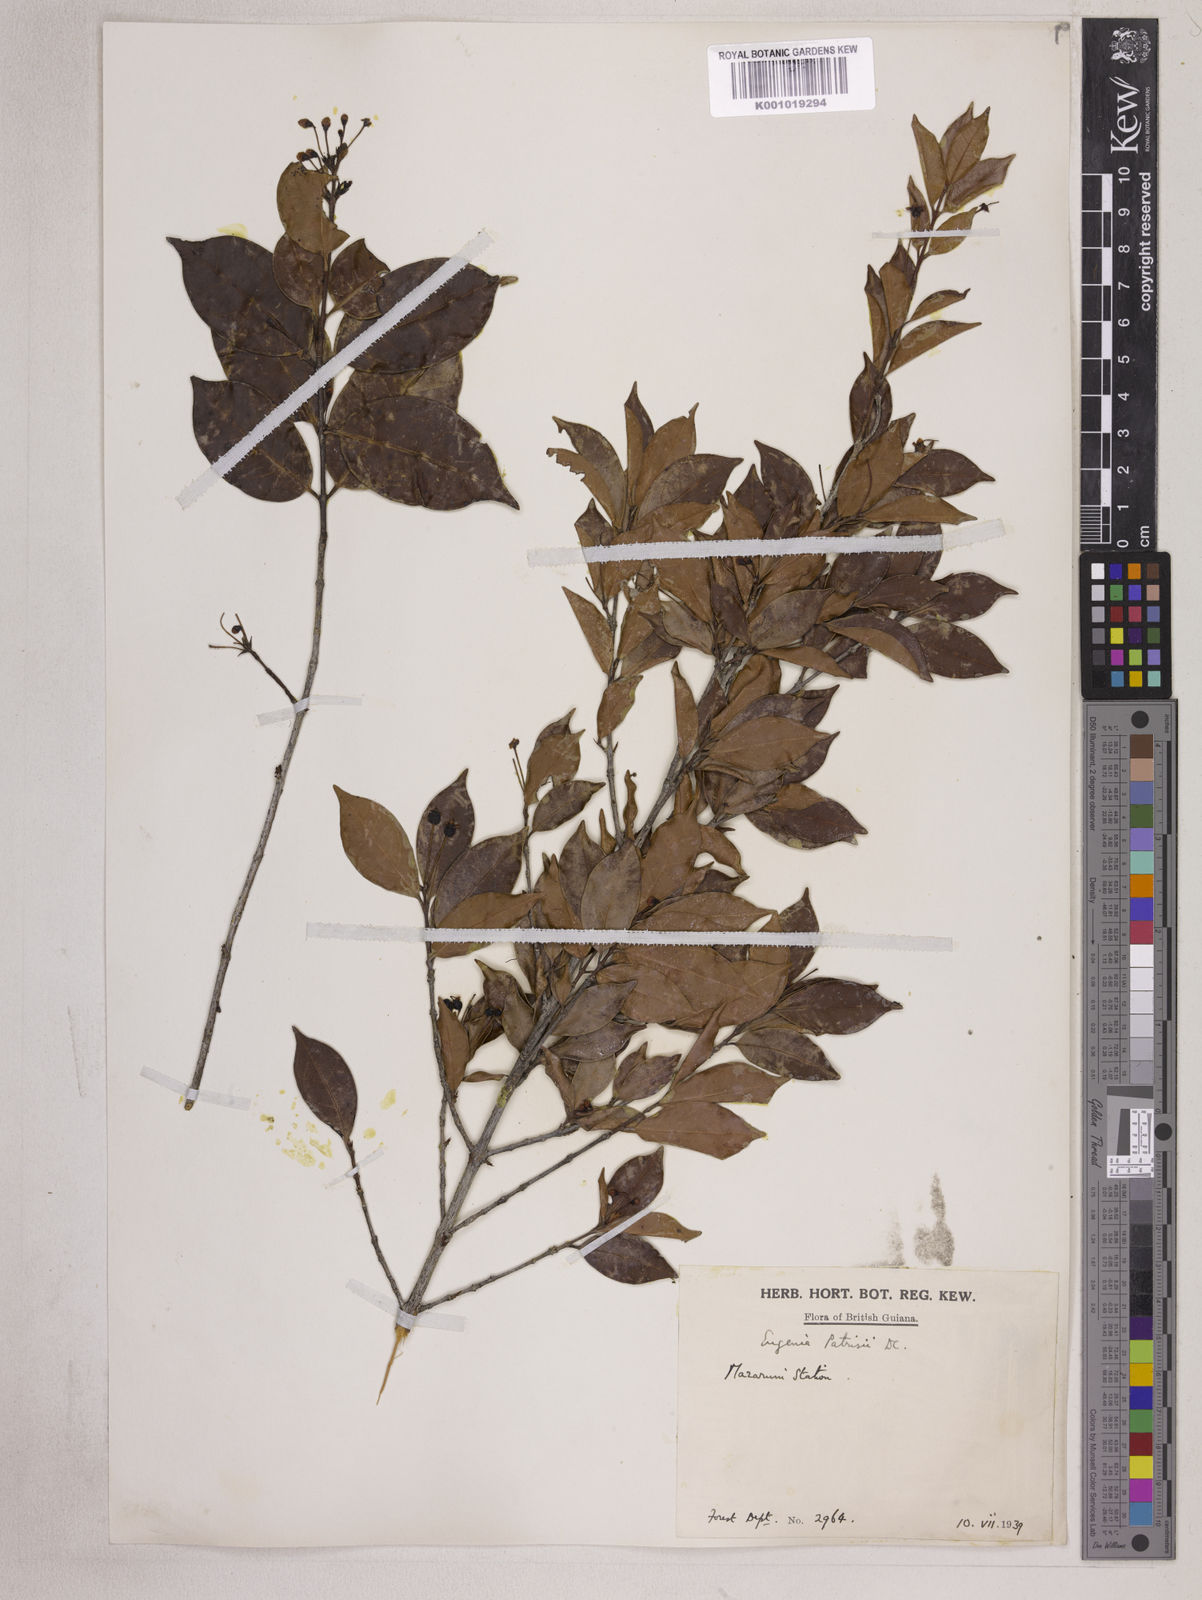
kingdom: Plantae
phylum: Tracheophyta
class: Magnoliopsida
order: Myrtales
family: Myrtaceae
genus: Eugenia
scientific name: Eugenia patrisii
